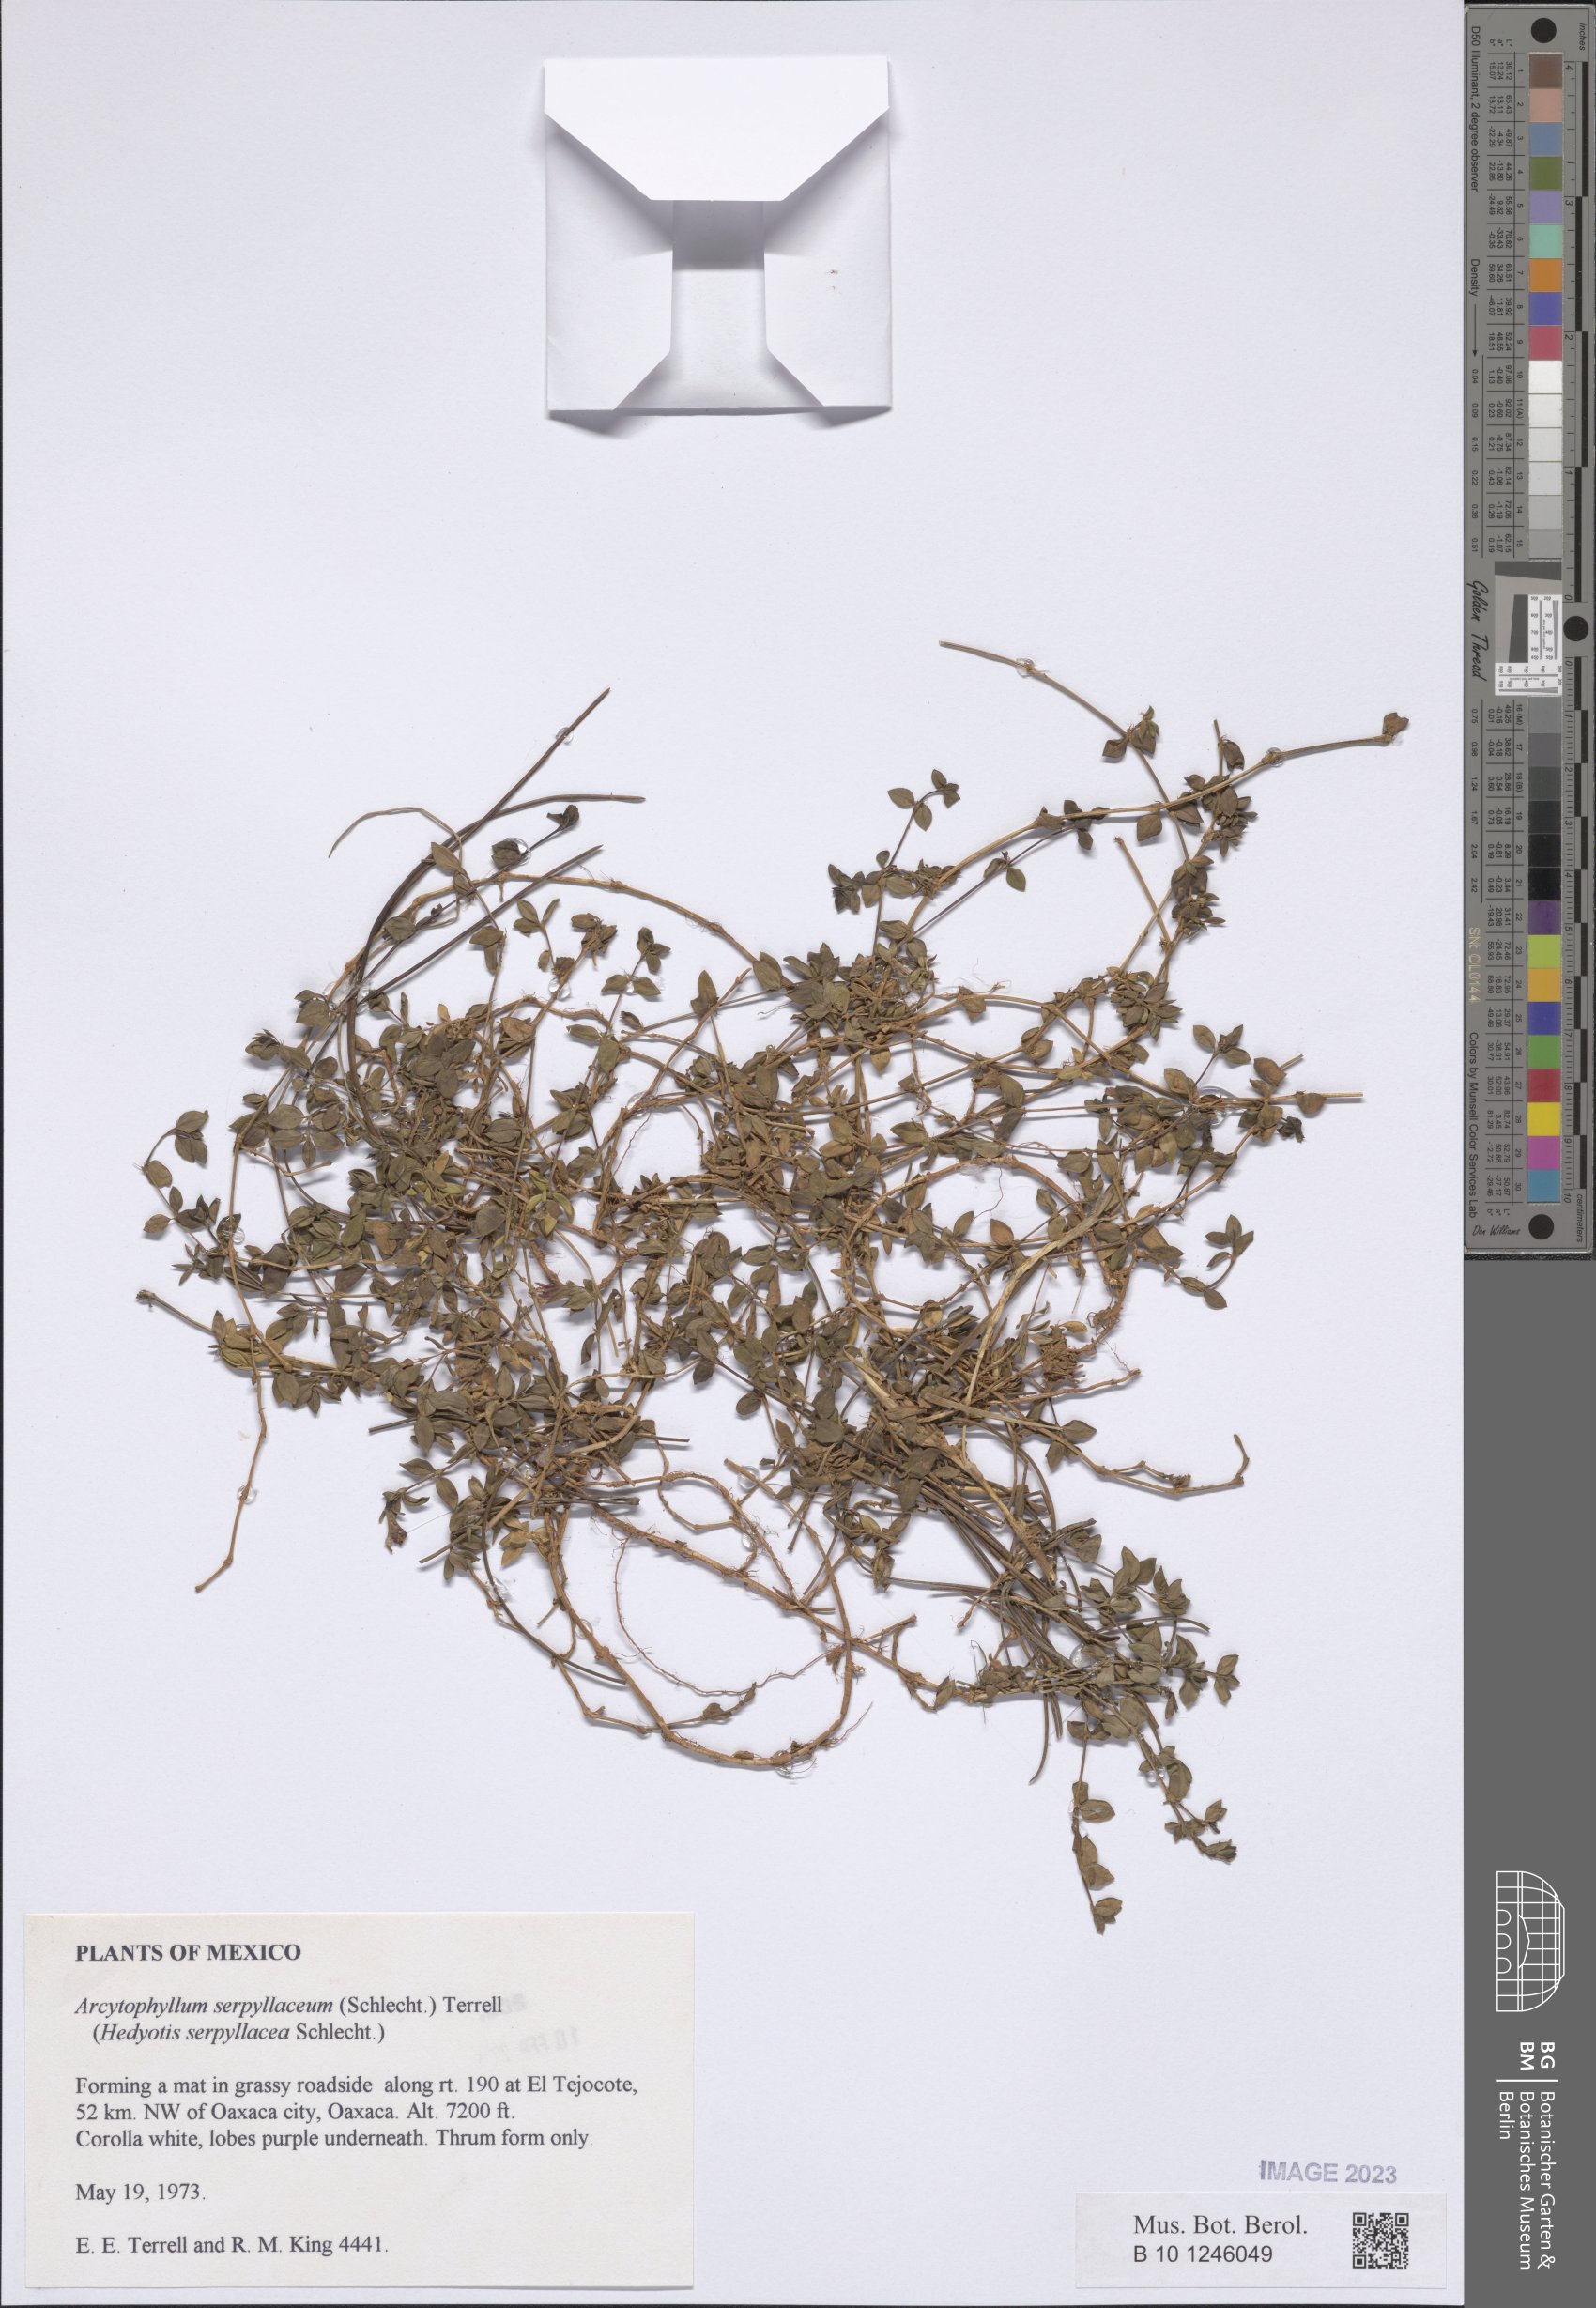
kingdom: Plantae
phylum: Tracheophyta
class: Magnoliopsida
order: Gentianales
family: Rubiaceae
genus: Arcytophyllum
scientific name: Arcytophyllum serpyllaceum
